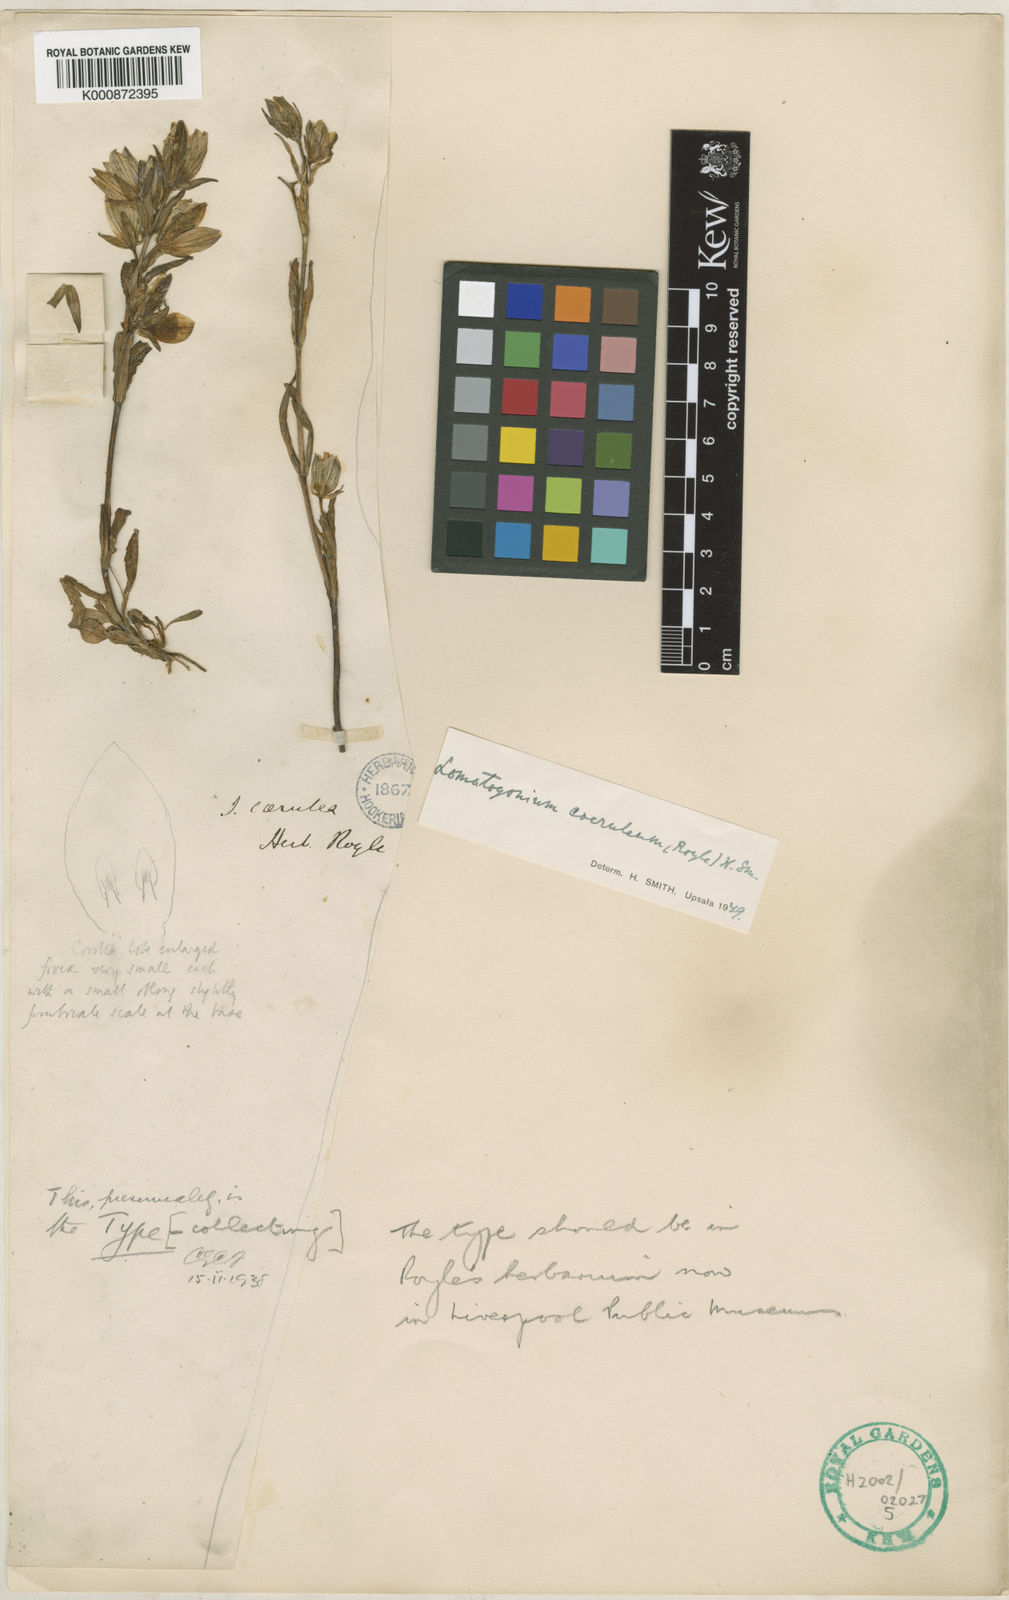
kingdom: Plantae
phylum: Tracheophyta
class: Magnoliopsida
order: Gentianales
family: Gentianaceae
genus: Lomatogonium
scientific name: Lomatogonium caeruleum
